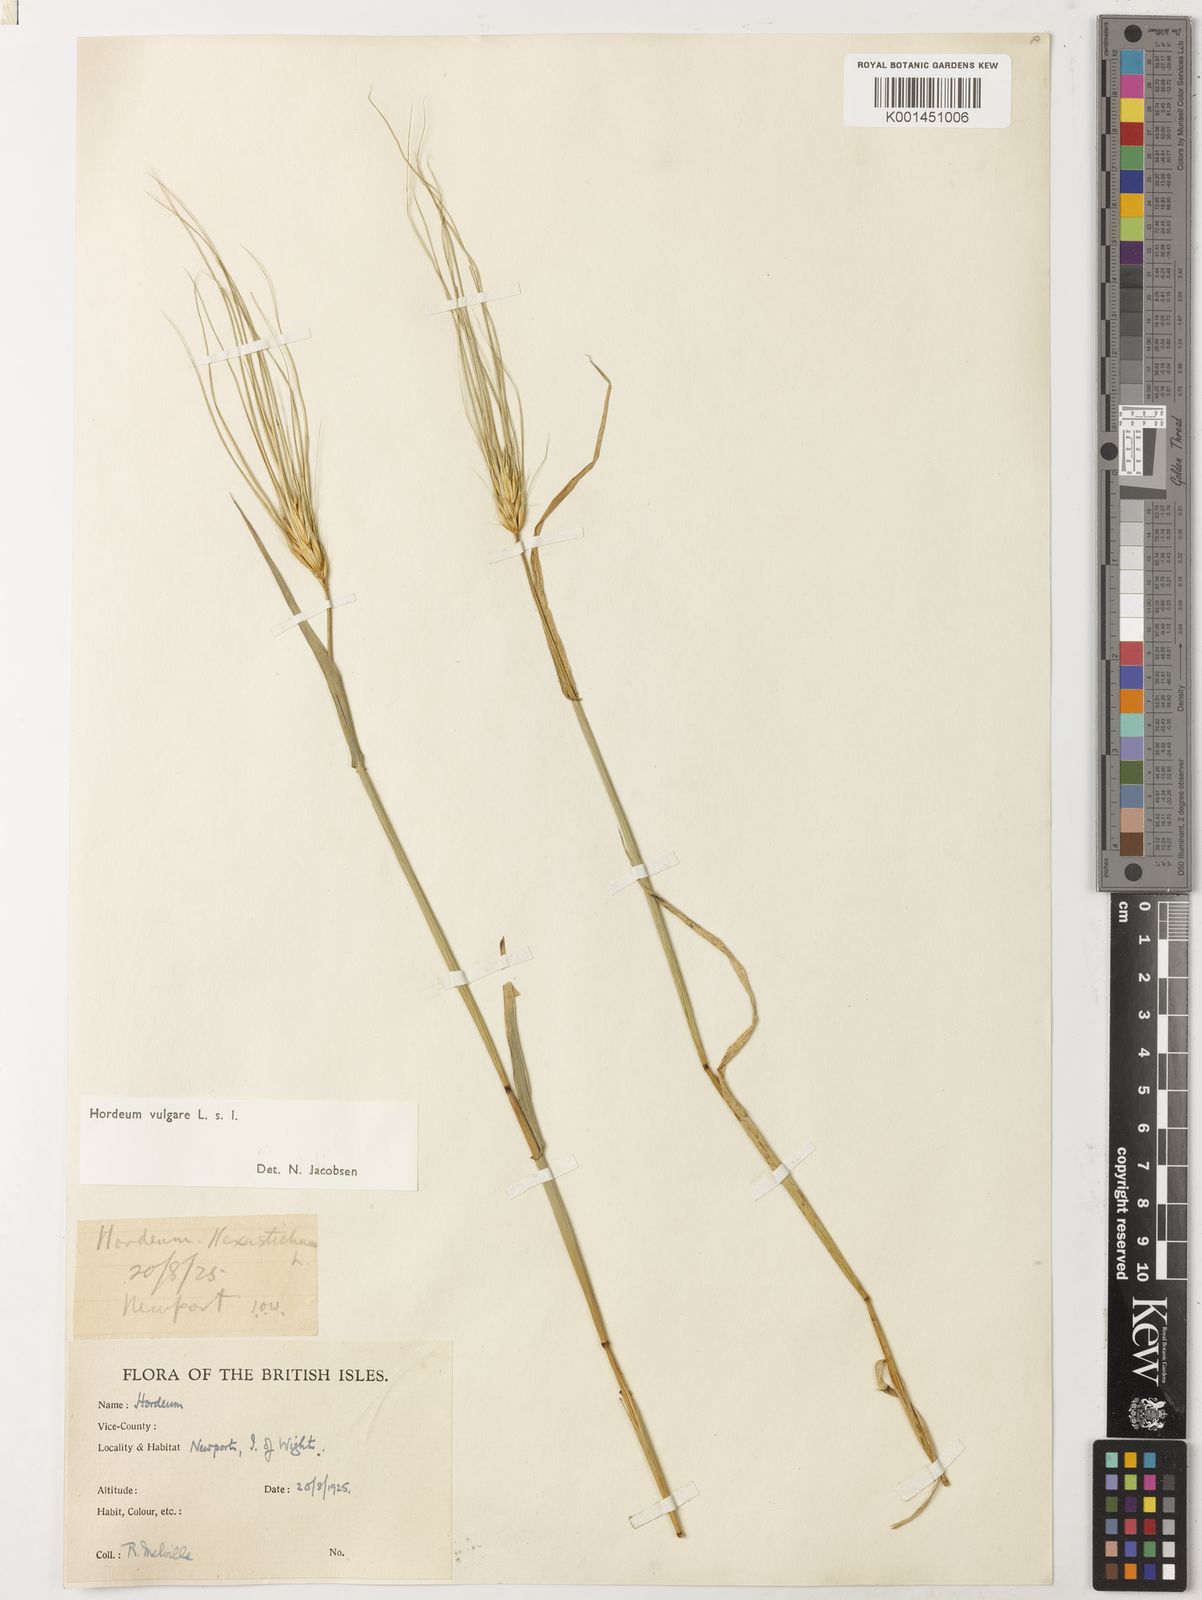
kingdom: Plantae
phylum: Tracheophyta
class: Liliopsida
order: Poales
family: Poaceae
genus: Hordeum
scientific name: Hordeum vulgare
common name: Common barley
